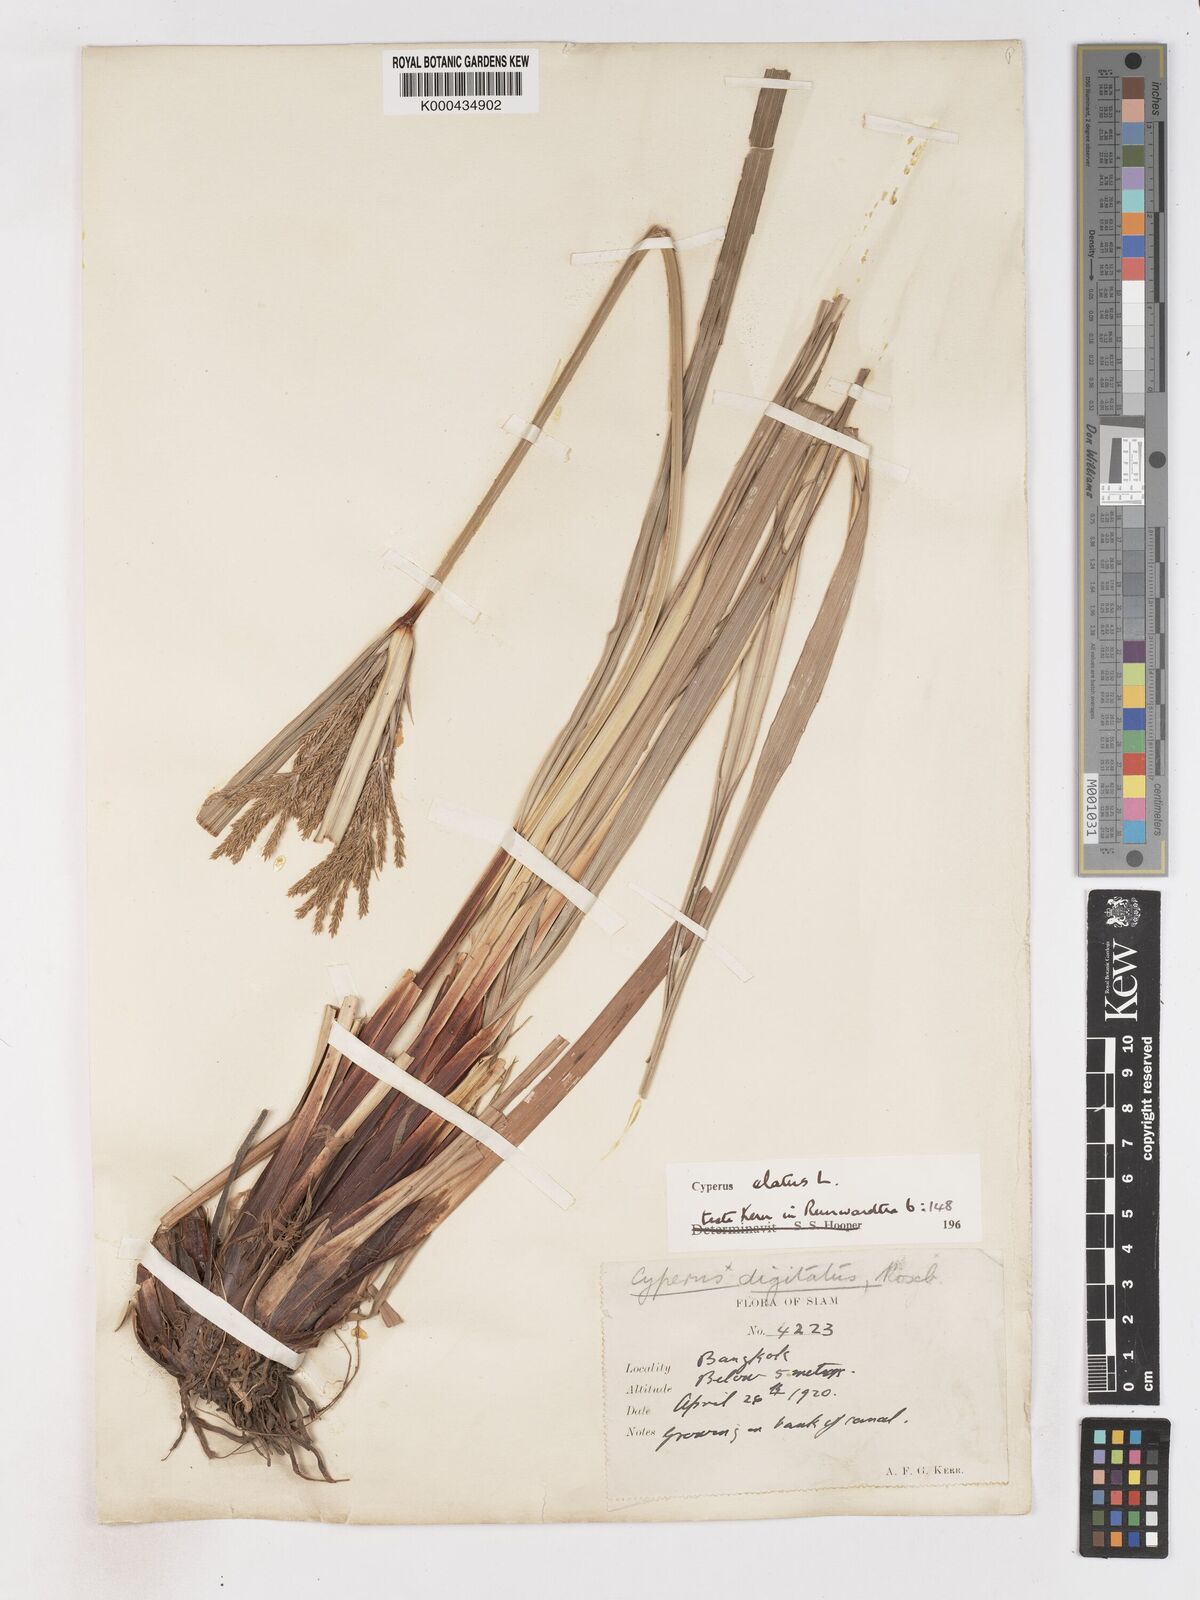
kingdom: Plantae
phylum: Tracheophyta
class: Liliopsida
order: Poales
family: Cyperaceae
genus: Cyperus
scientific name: Cyperus elatus
